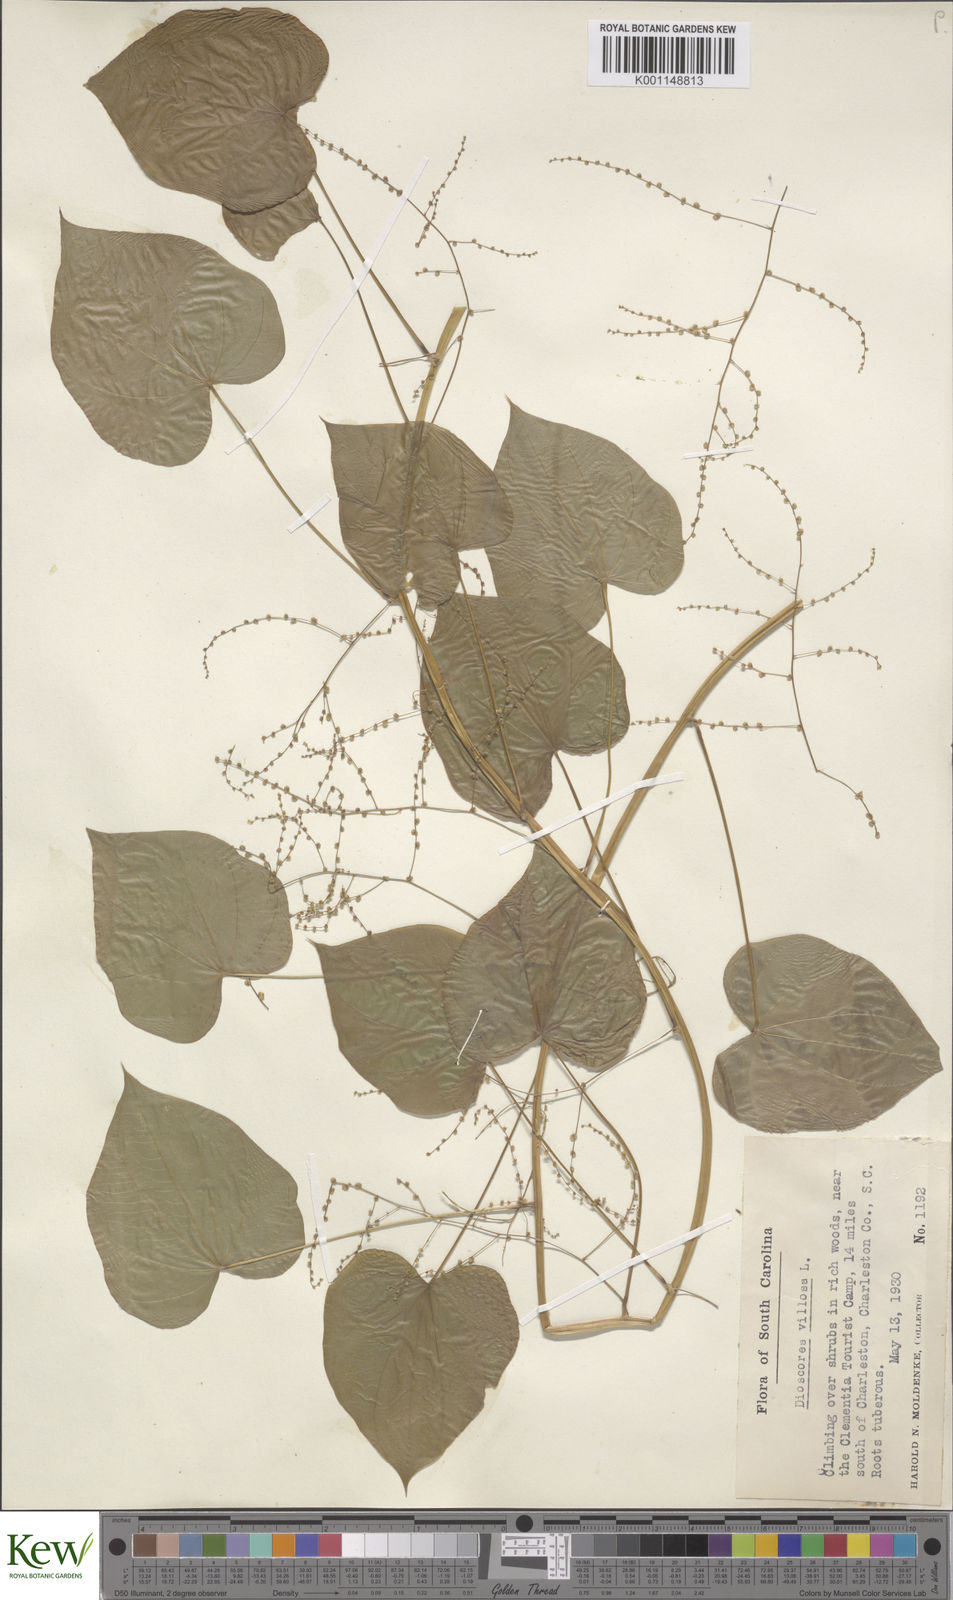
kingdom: Plantae
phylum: Tracheophyta
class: Liliopsida
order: Dioscoreales
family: Dioscoreaceae
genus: Dioscorea
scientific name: Dioscorea villosa
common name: Wild yam
